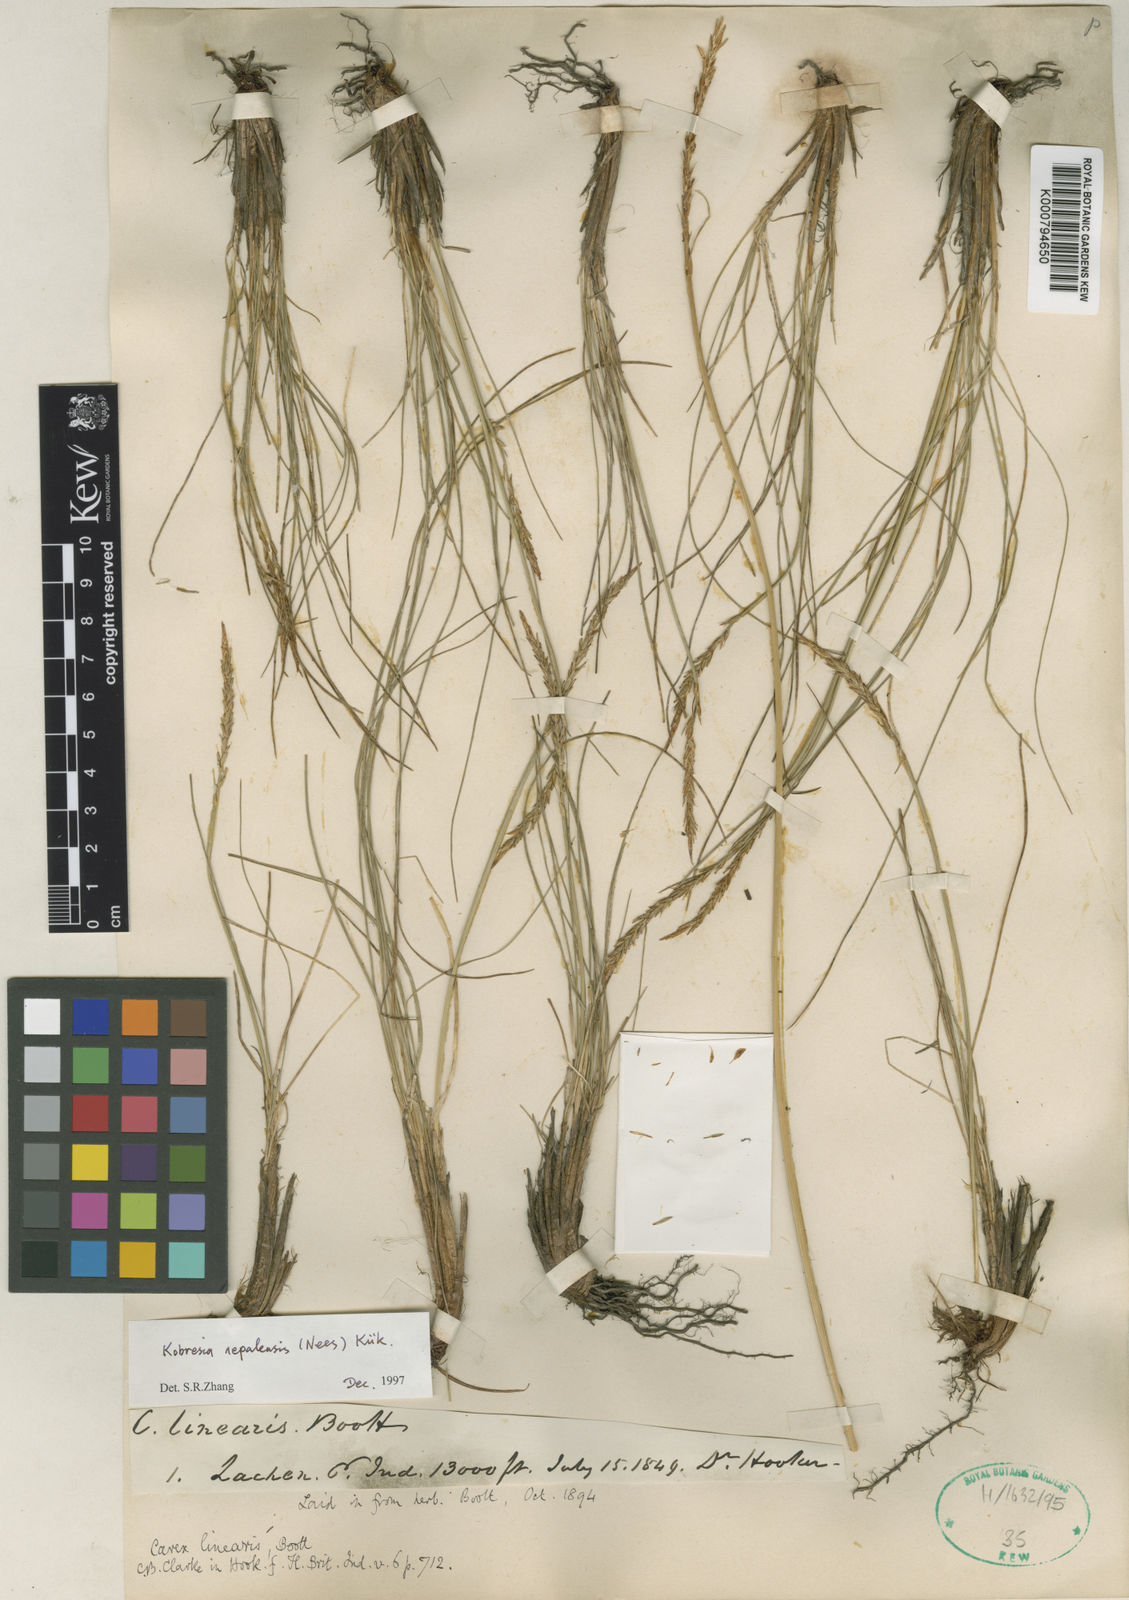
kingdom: Plantae
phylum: Tracheophyta
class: Liliopsida
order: Poales
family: Cyperaceae
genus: Carex
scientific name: Carex
